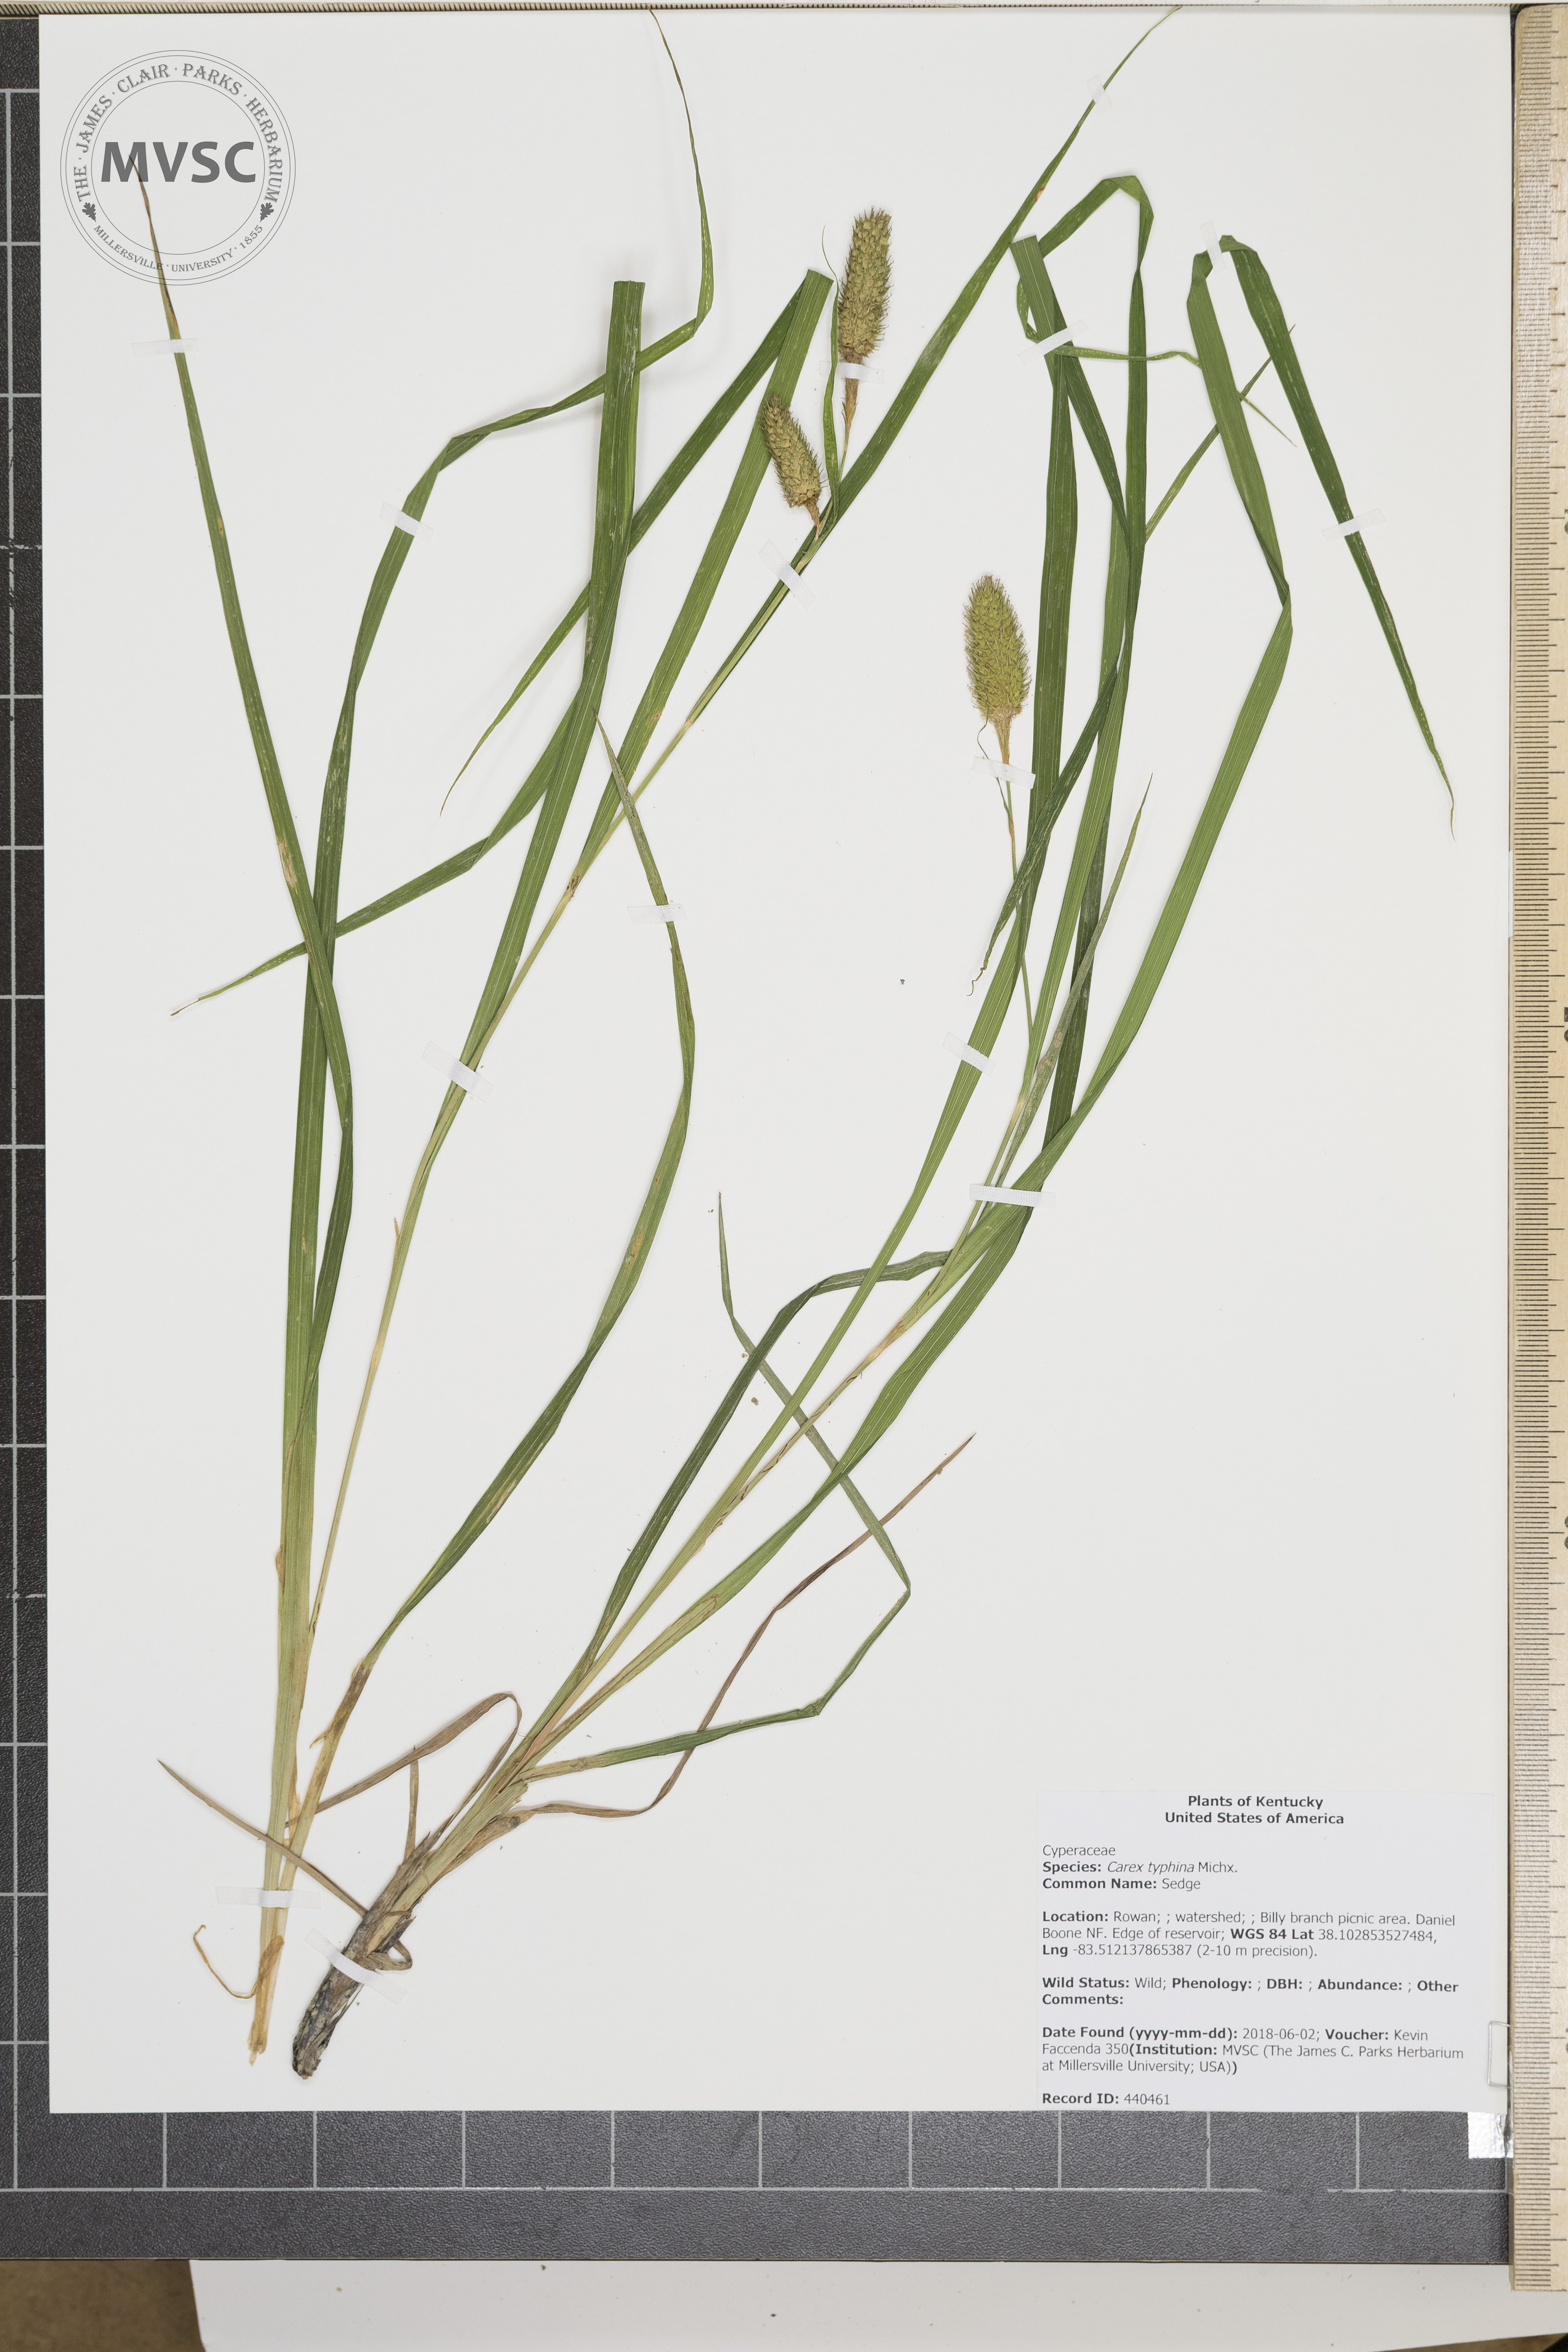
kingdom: Plantae
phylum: Tracheophyta
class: Liliopsida
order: Poales
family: Cyperaceae
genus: Carex
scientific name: Carex typhina
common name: Sedge
